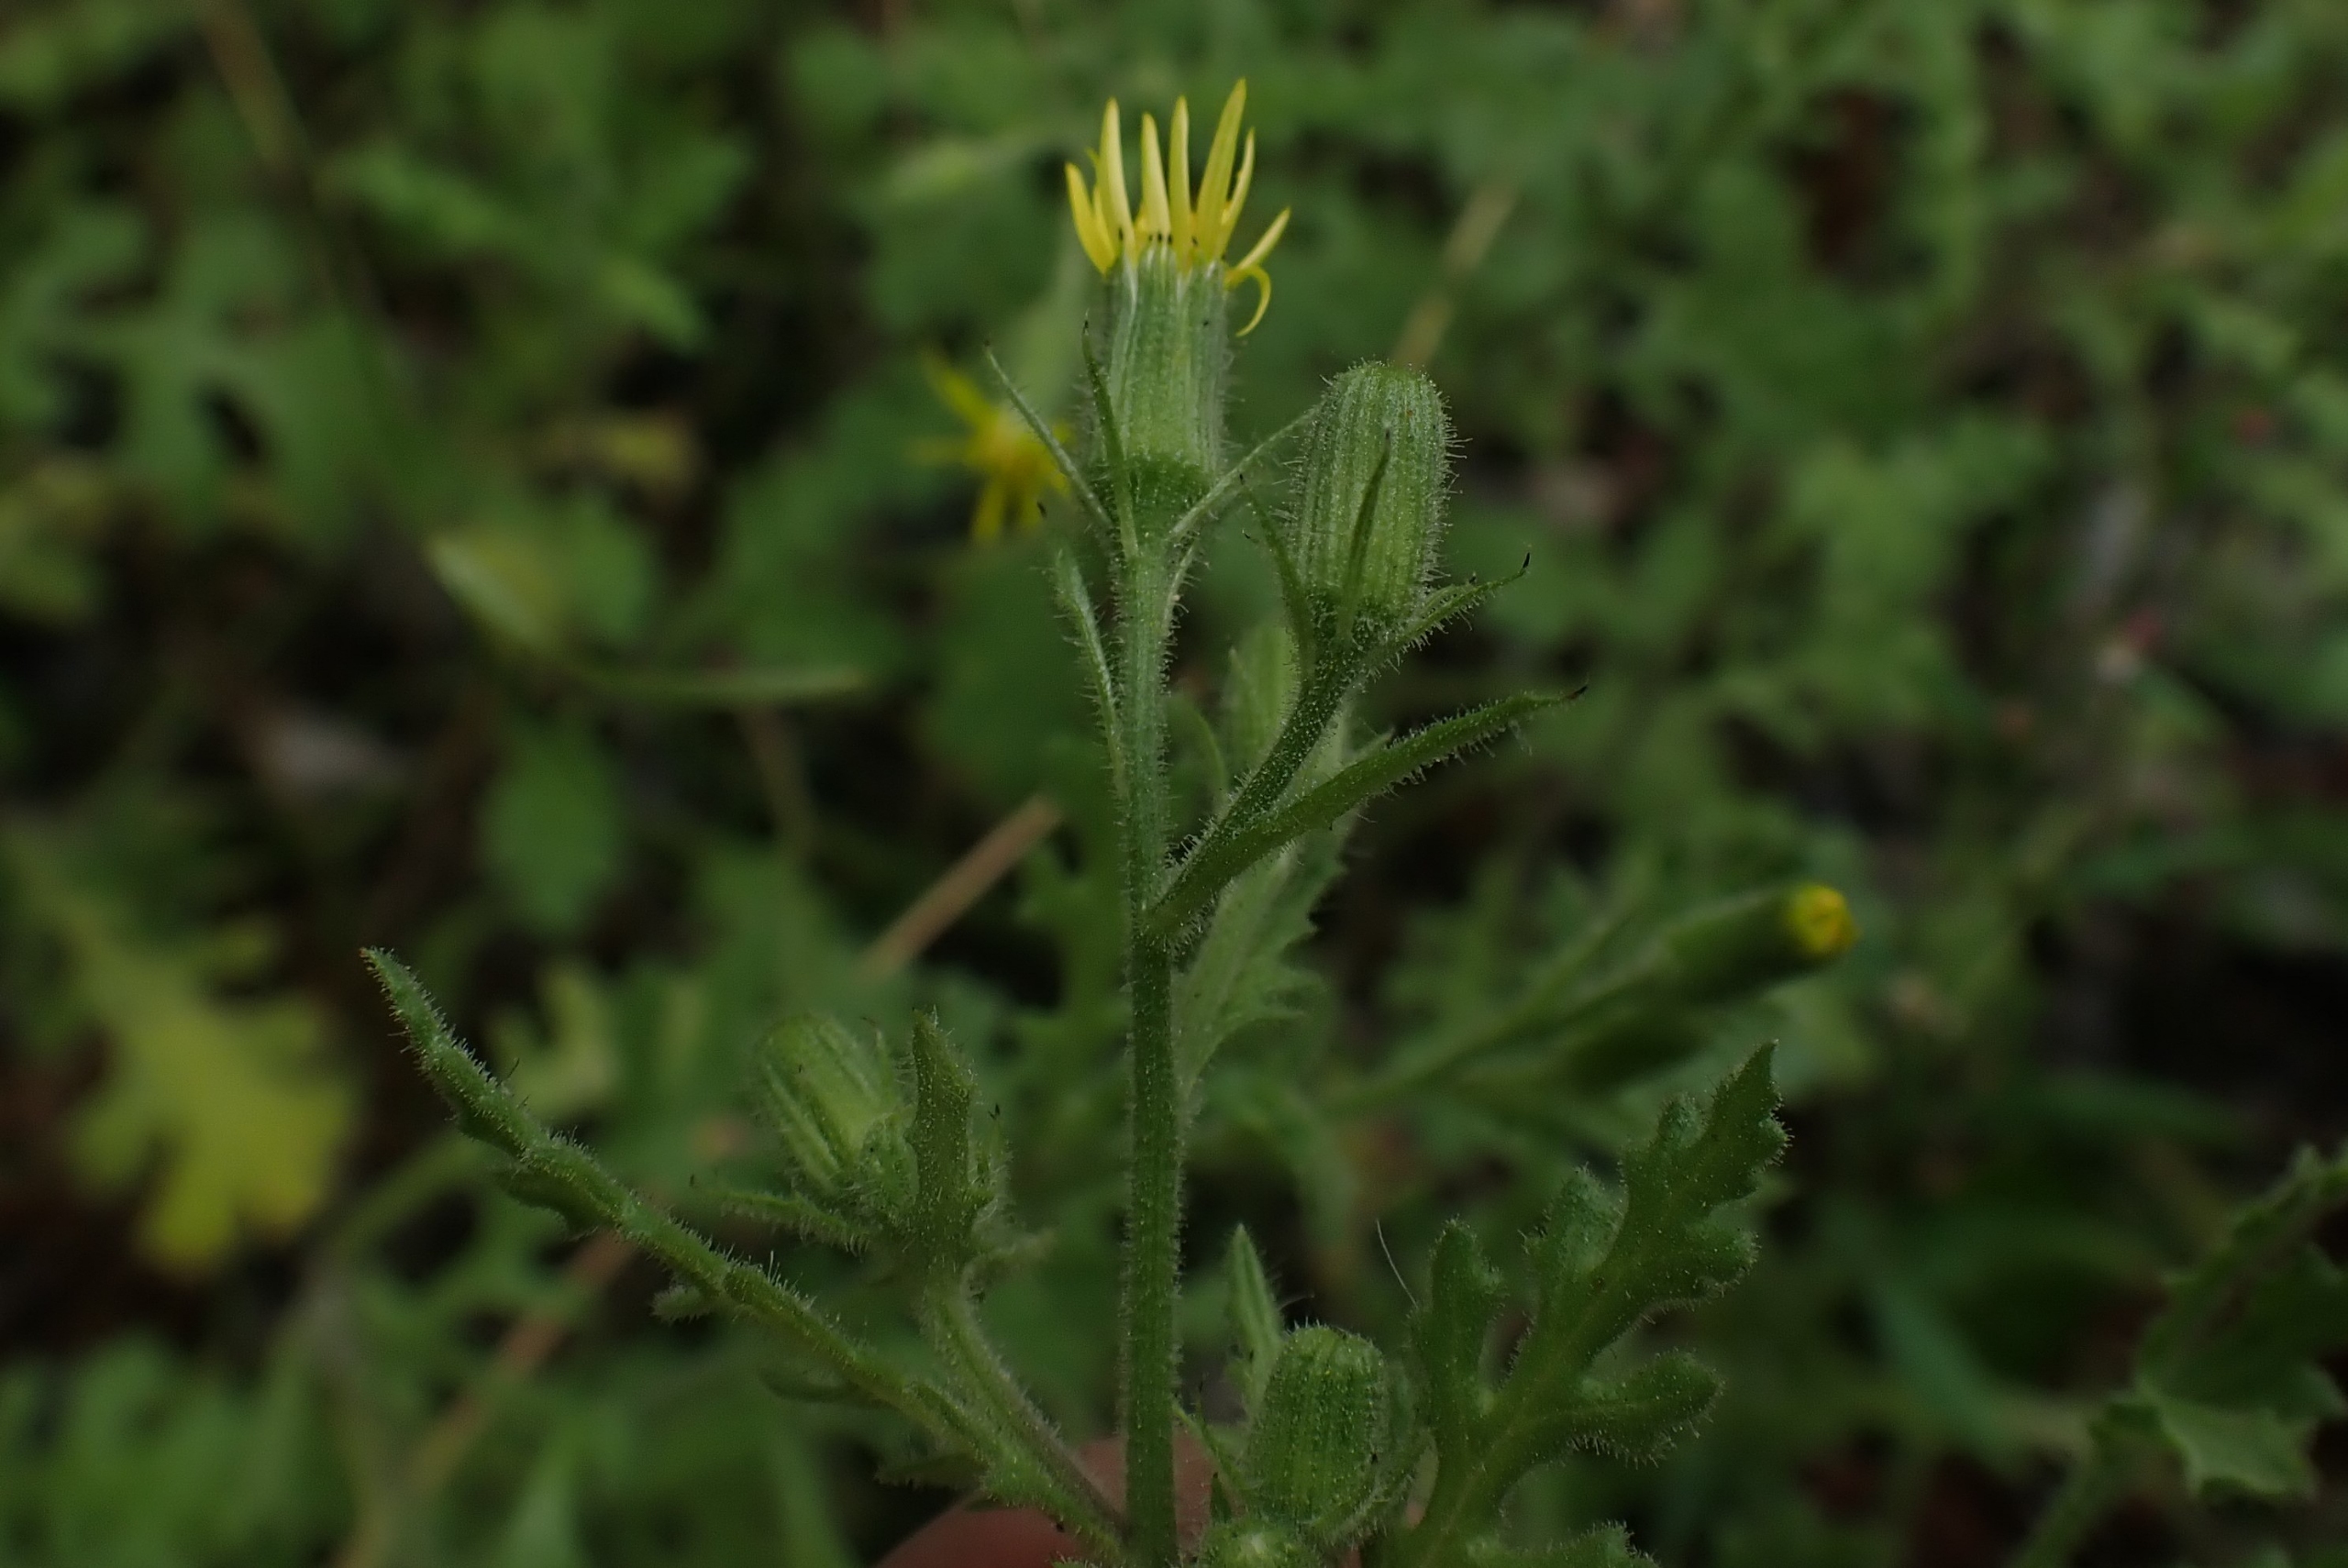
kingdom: Plantae
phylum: Tracheophyta
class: Magnoliopsida
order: Asterales
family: Asteraceae
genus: Senecio
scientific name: Senecio viscosus
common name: Klæbrig brandbæger
